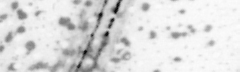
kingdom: Animalia
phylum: Chordata
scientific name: Chordata
